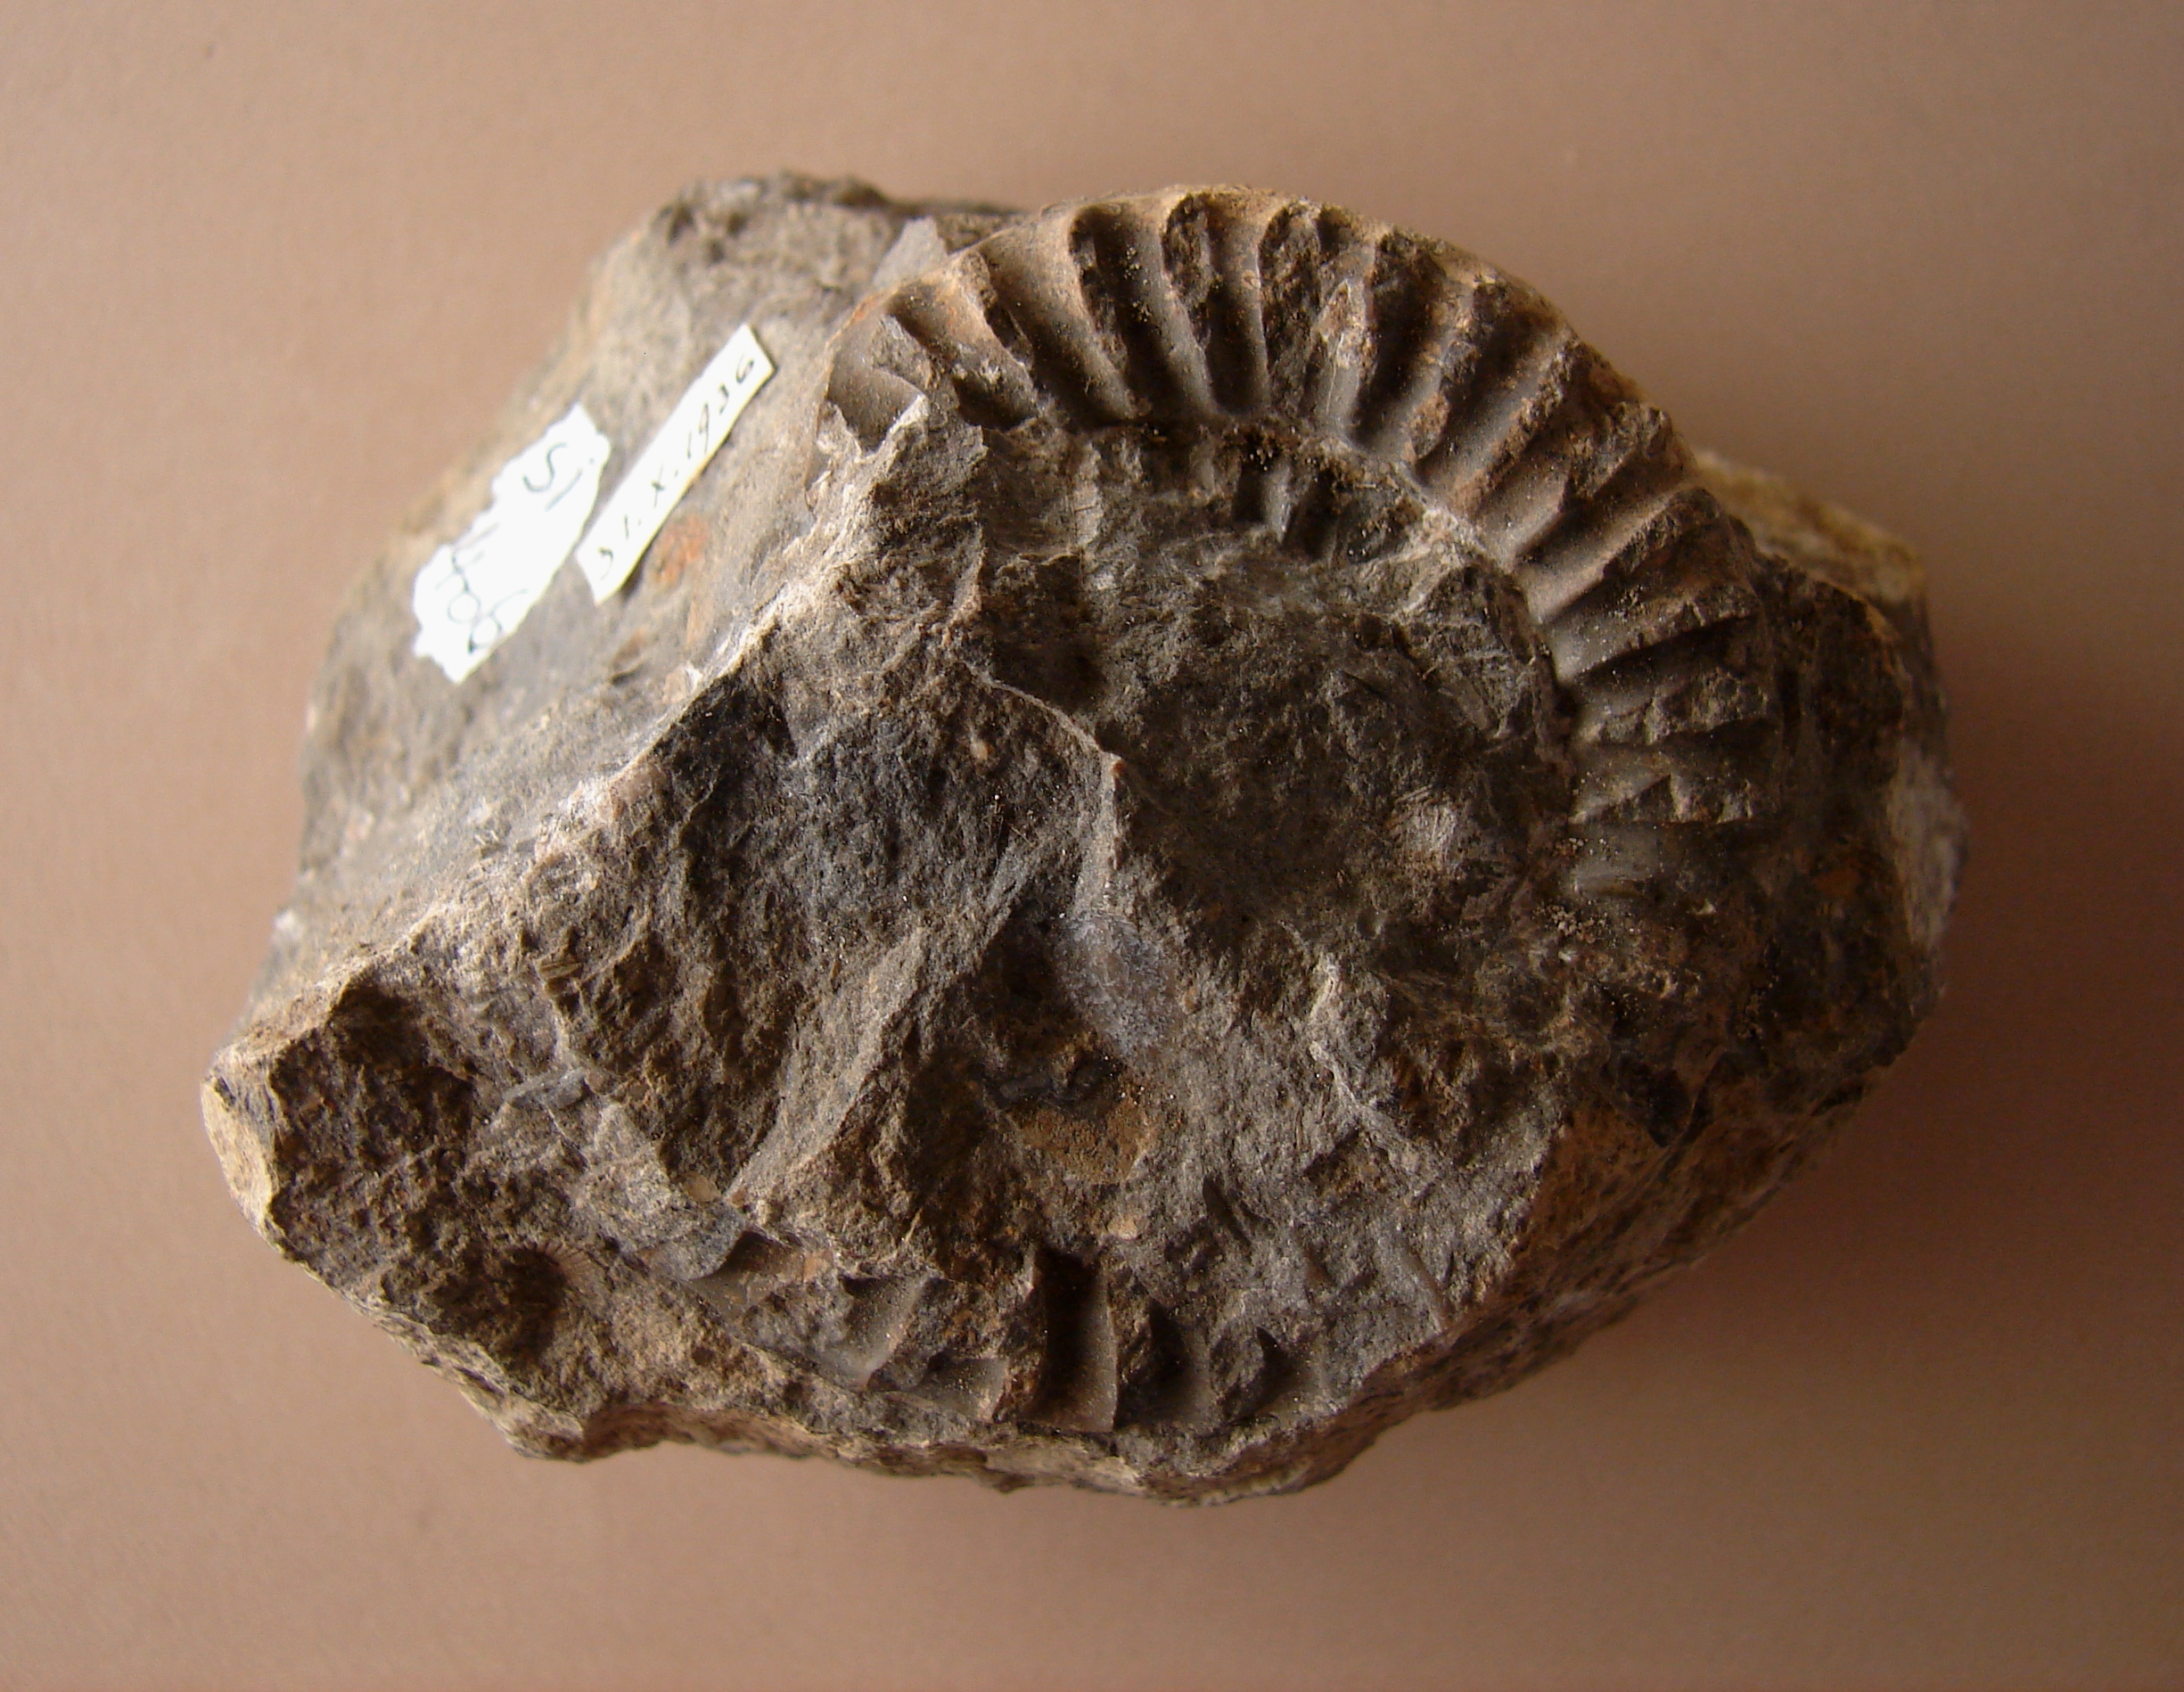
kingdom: Animalia
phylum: Mollusca
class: Cephalopoda
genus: Ammonites
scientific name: Ammonites bisulcatus
